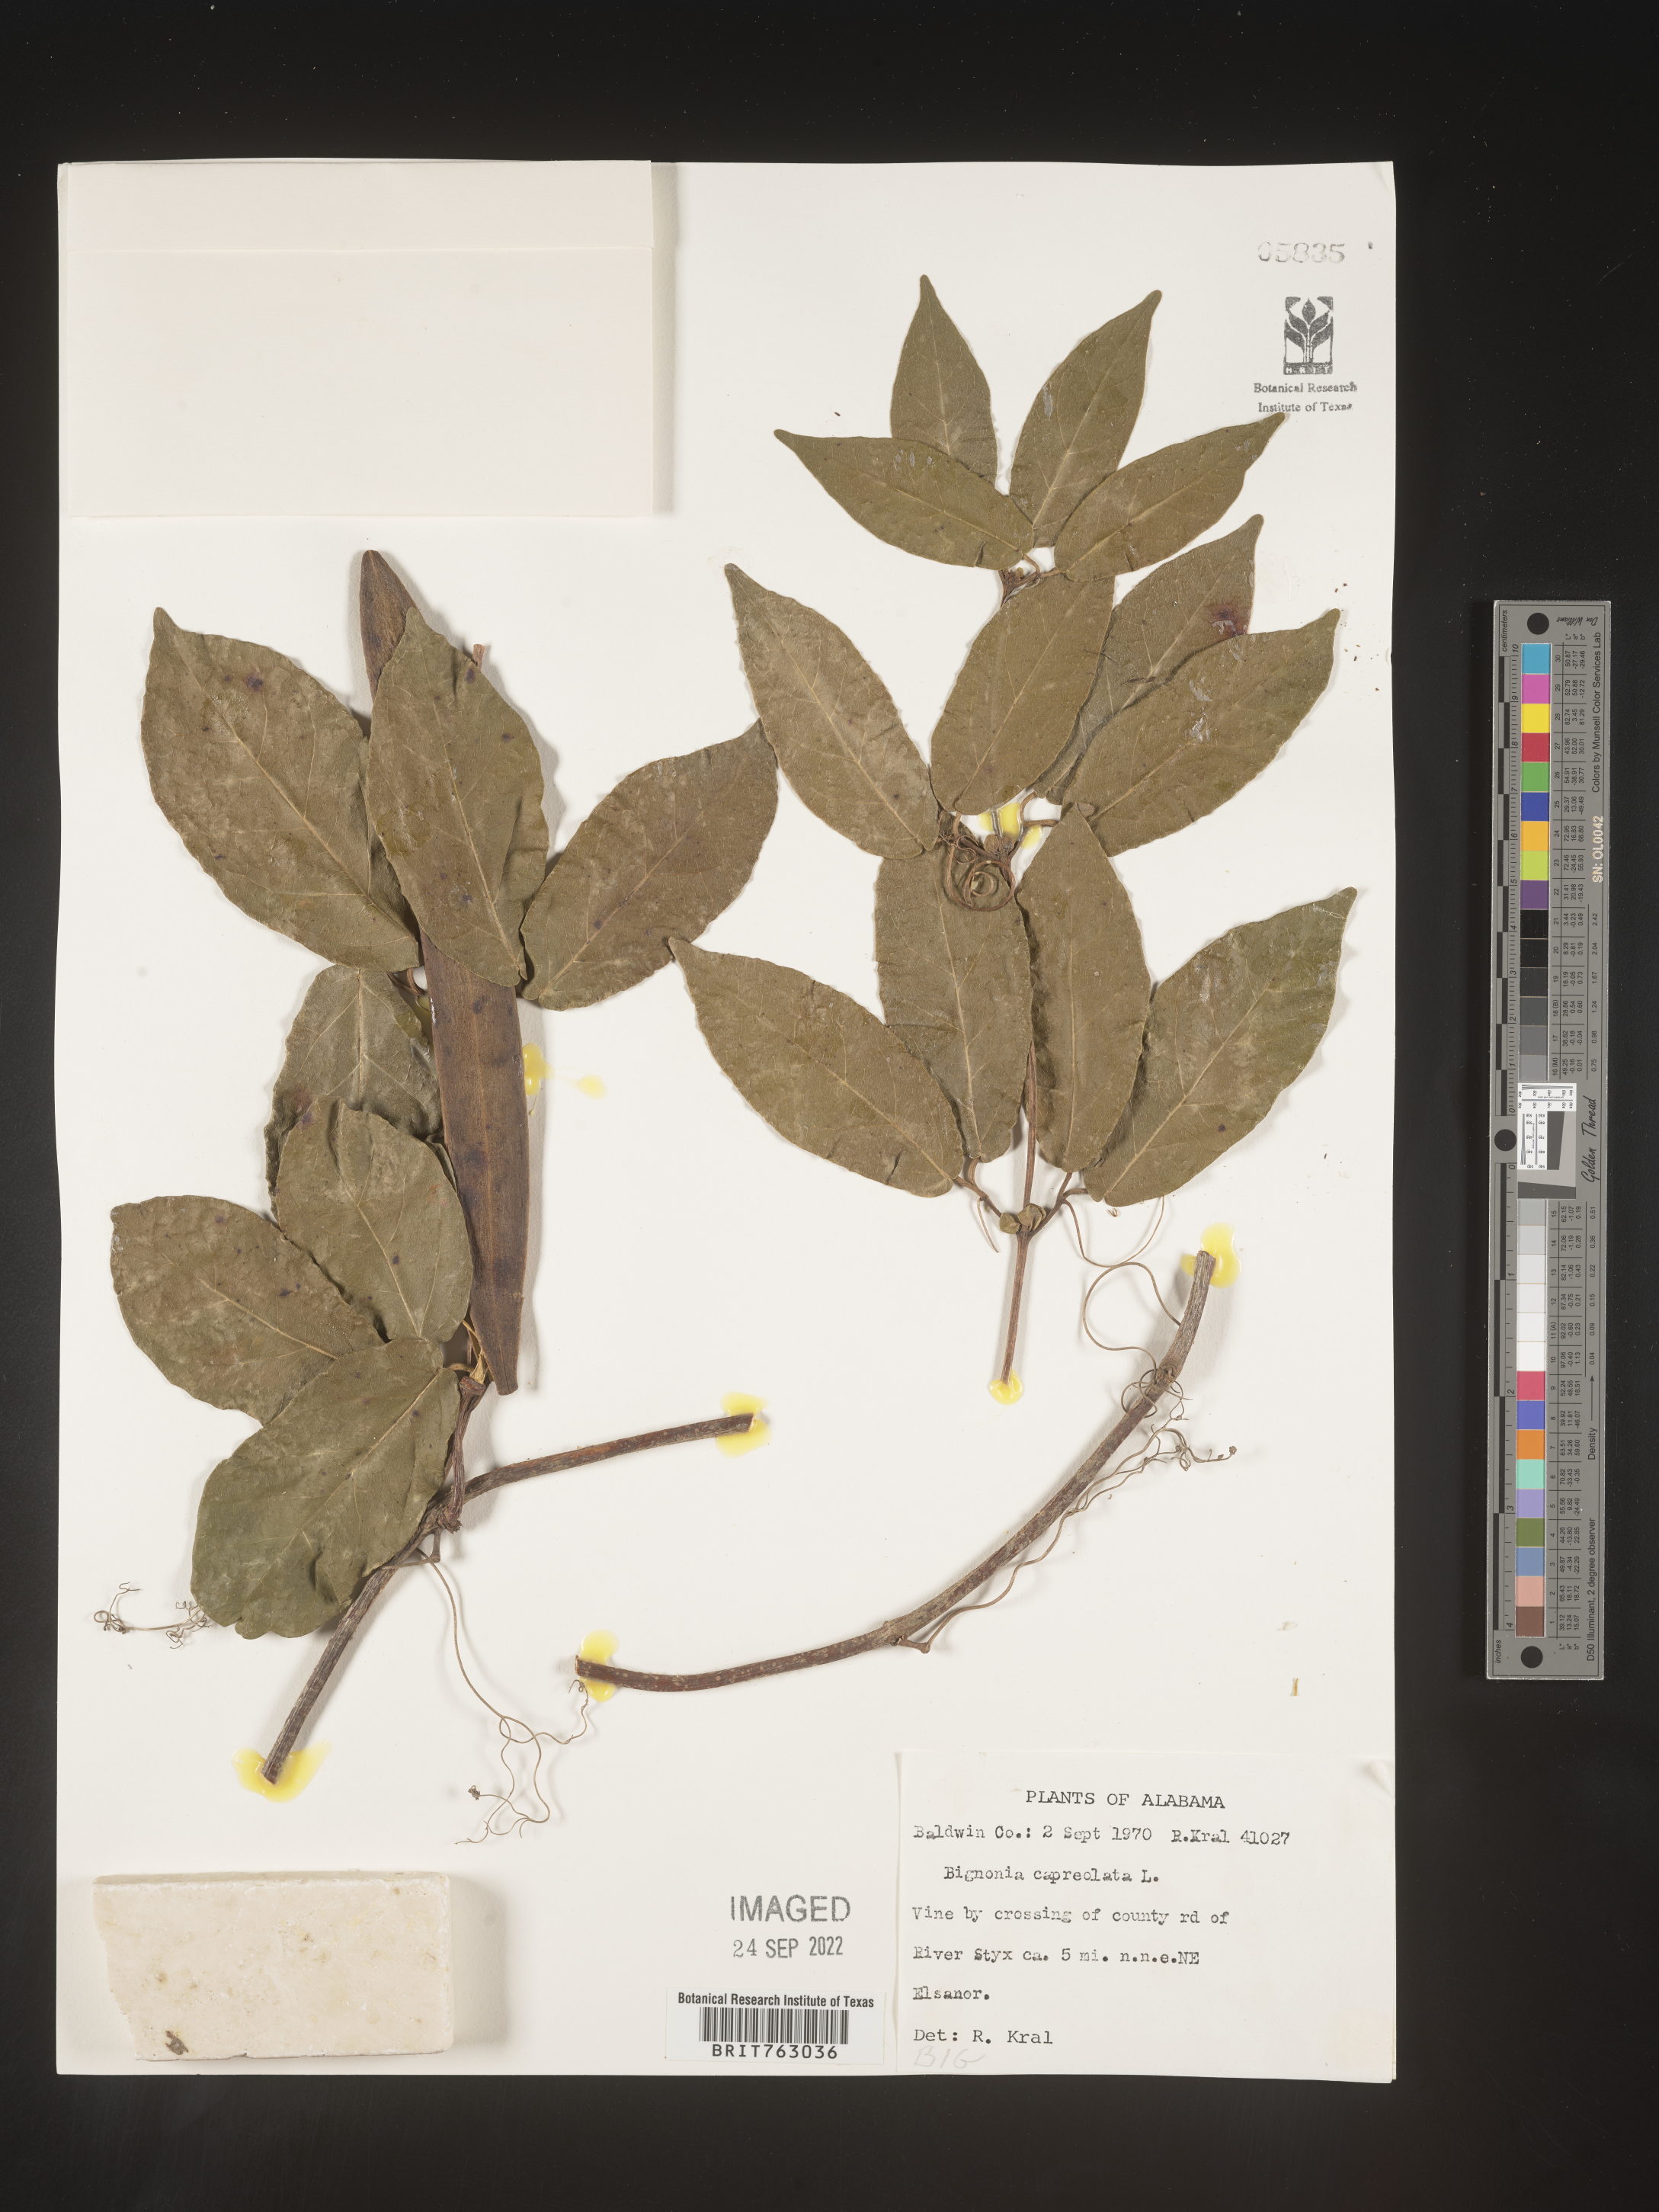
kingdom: Plantae
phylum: Tracheophyta
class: Magnoliopsida
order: Lamiales
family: Bignoniaceae
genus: Bignonia
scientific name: Bignonia capreolata
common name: Crossvine
